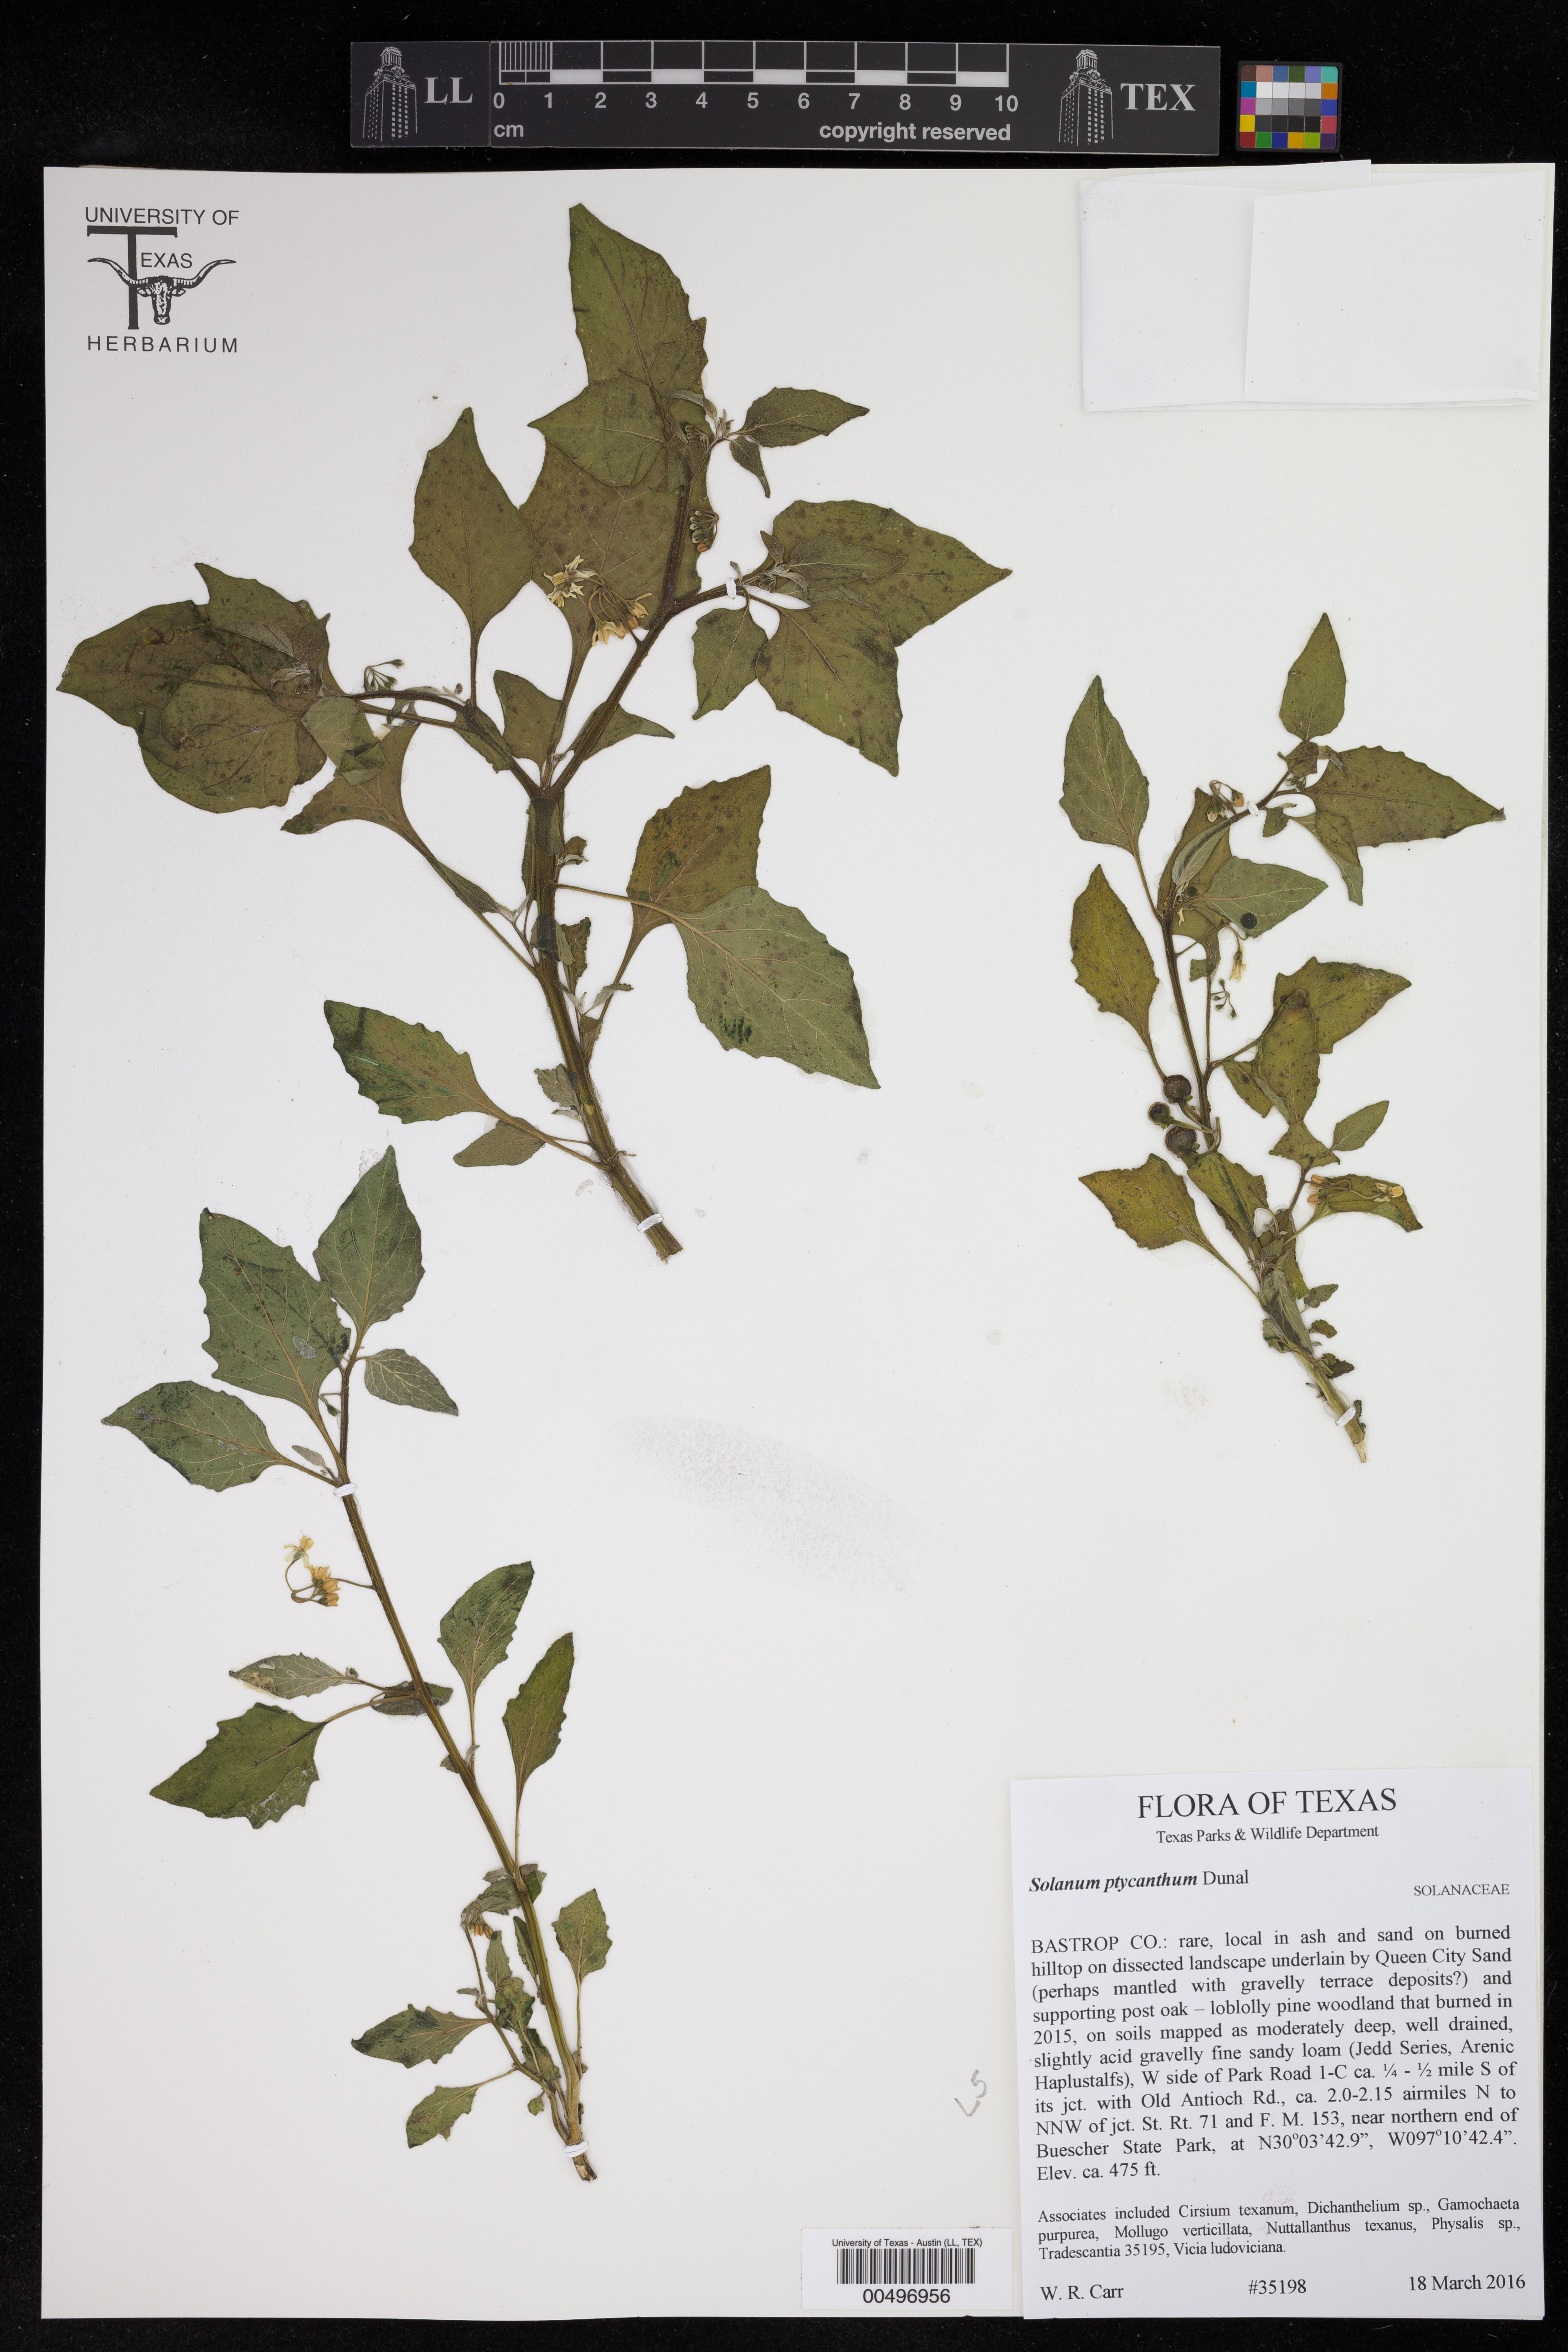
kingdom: Plantae
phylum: Tracheophyta
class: Magnoliopsida
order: Solanales
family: Solanaceae
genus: Solanum
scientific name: Solanum americanum
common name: American black nightshade
